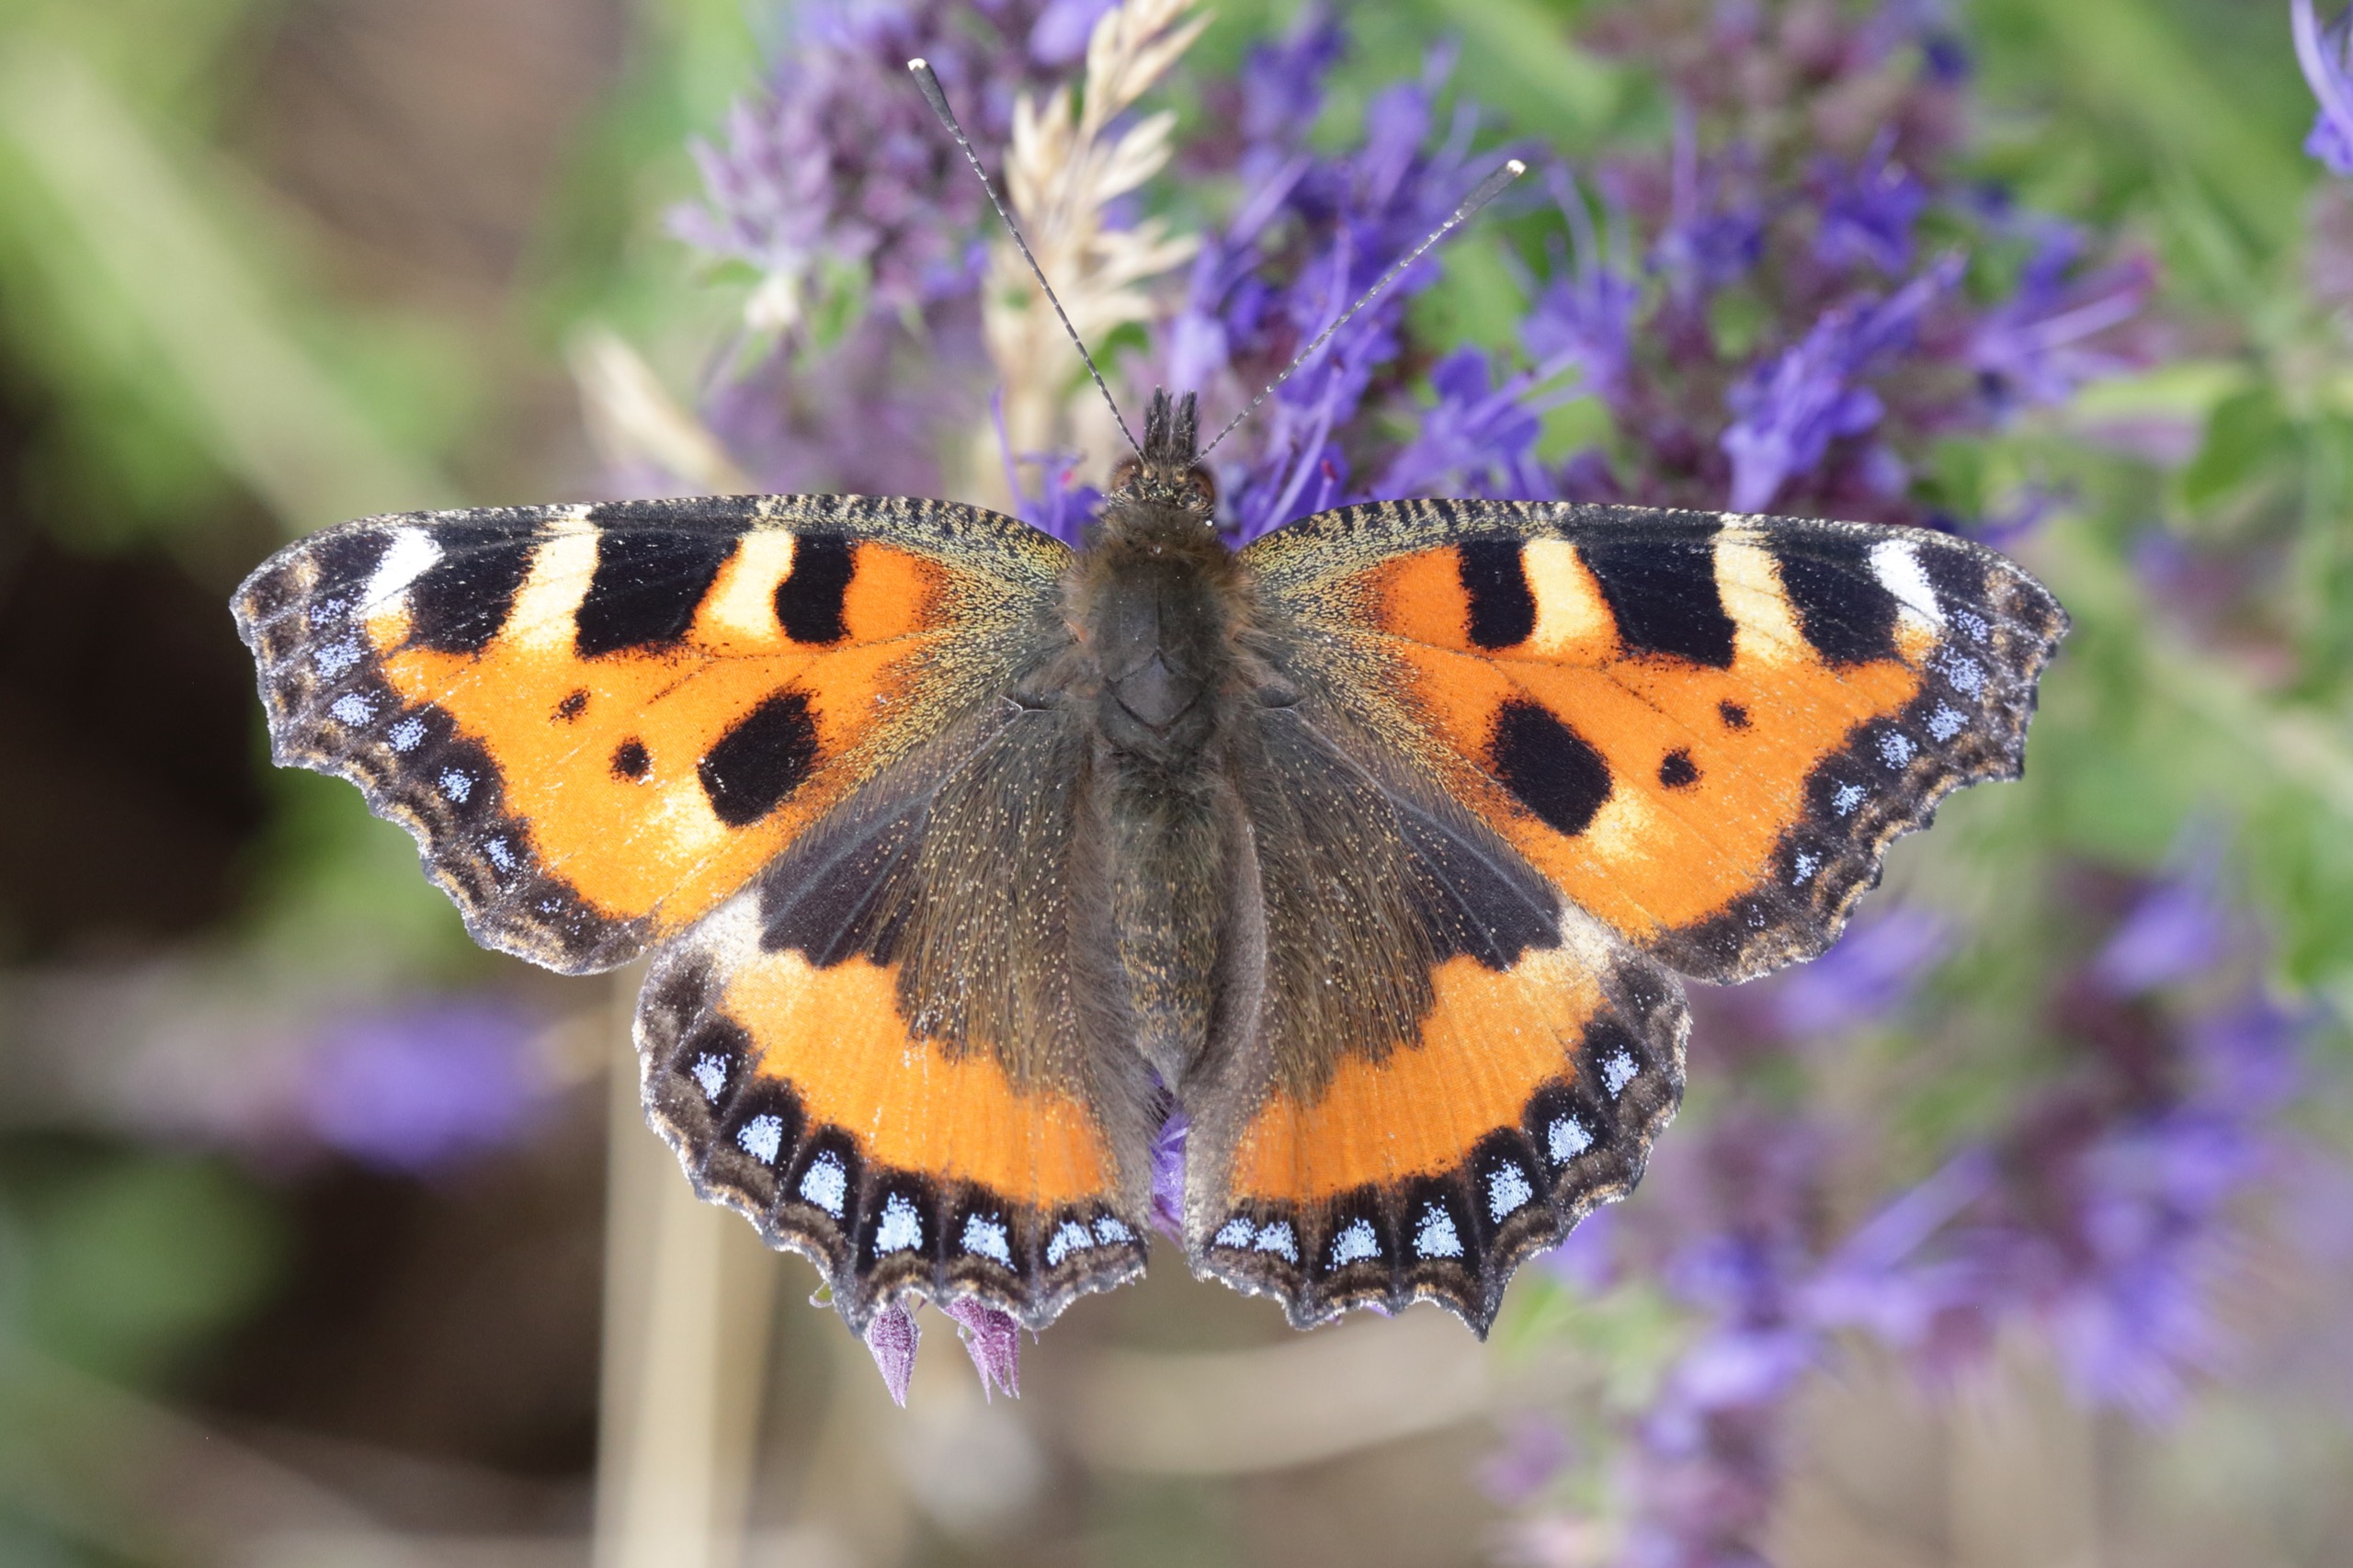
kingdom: Animalia
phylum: Arthropoda
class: Insecta
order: Lepidoptera
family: Nymphalidae
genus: Aglais
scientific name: Aglais urticae
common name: Nældens takvinge
